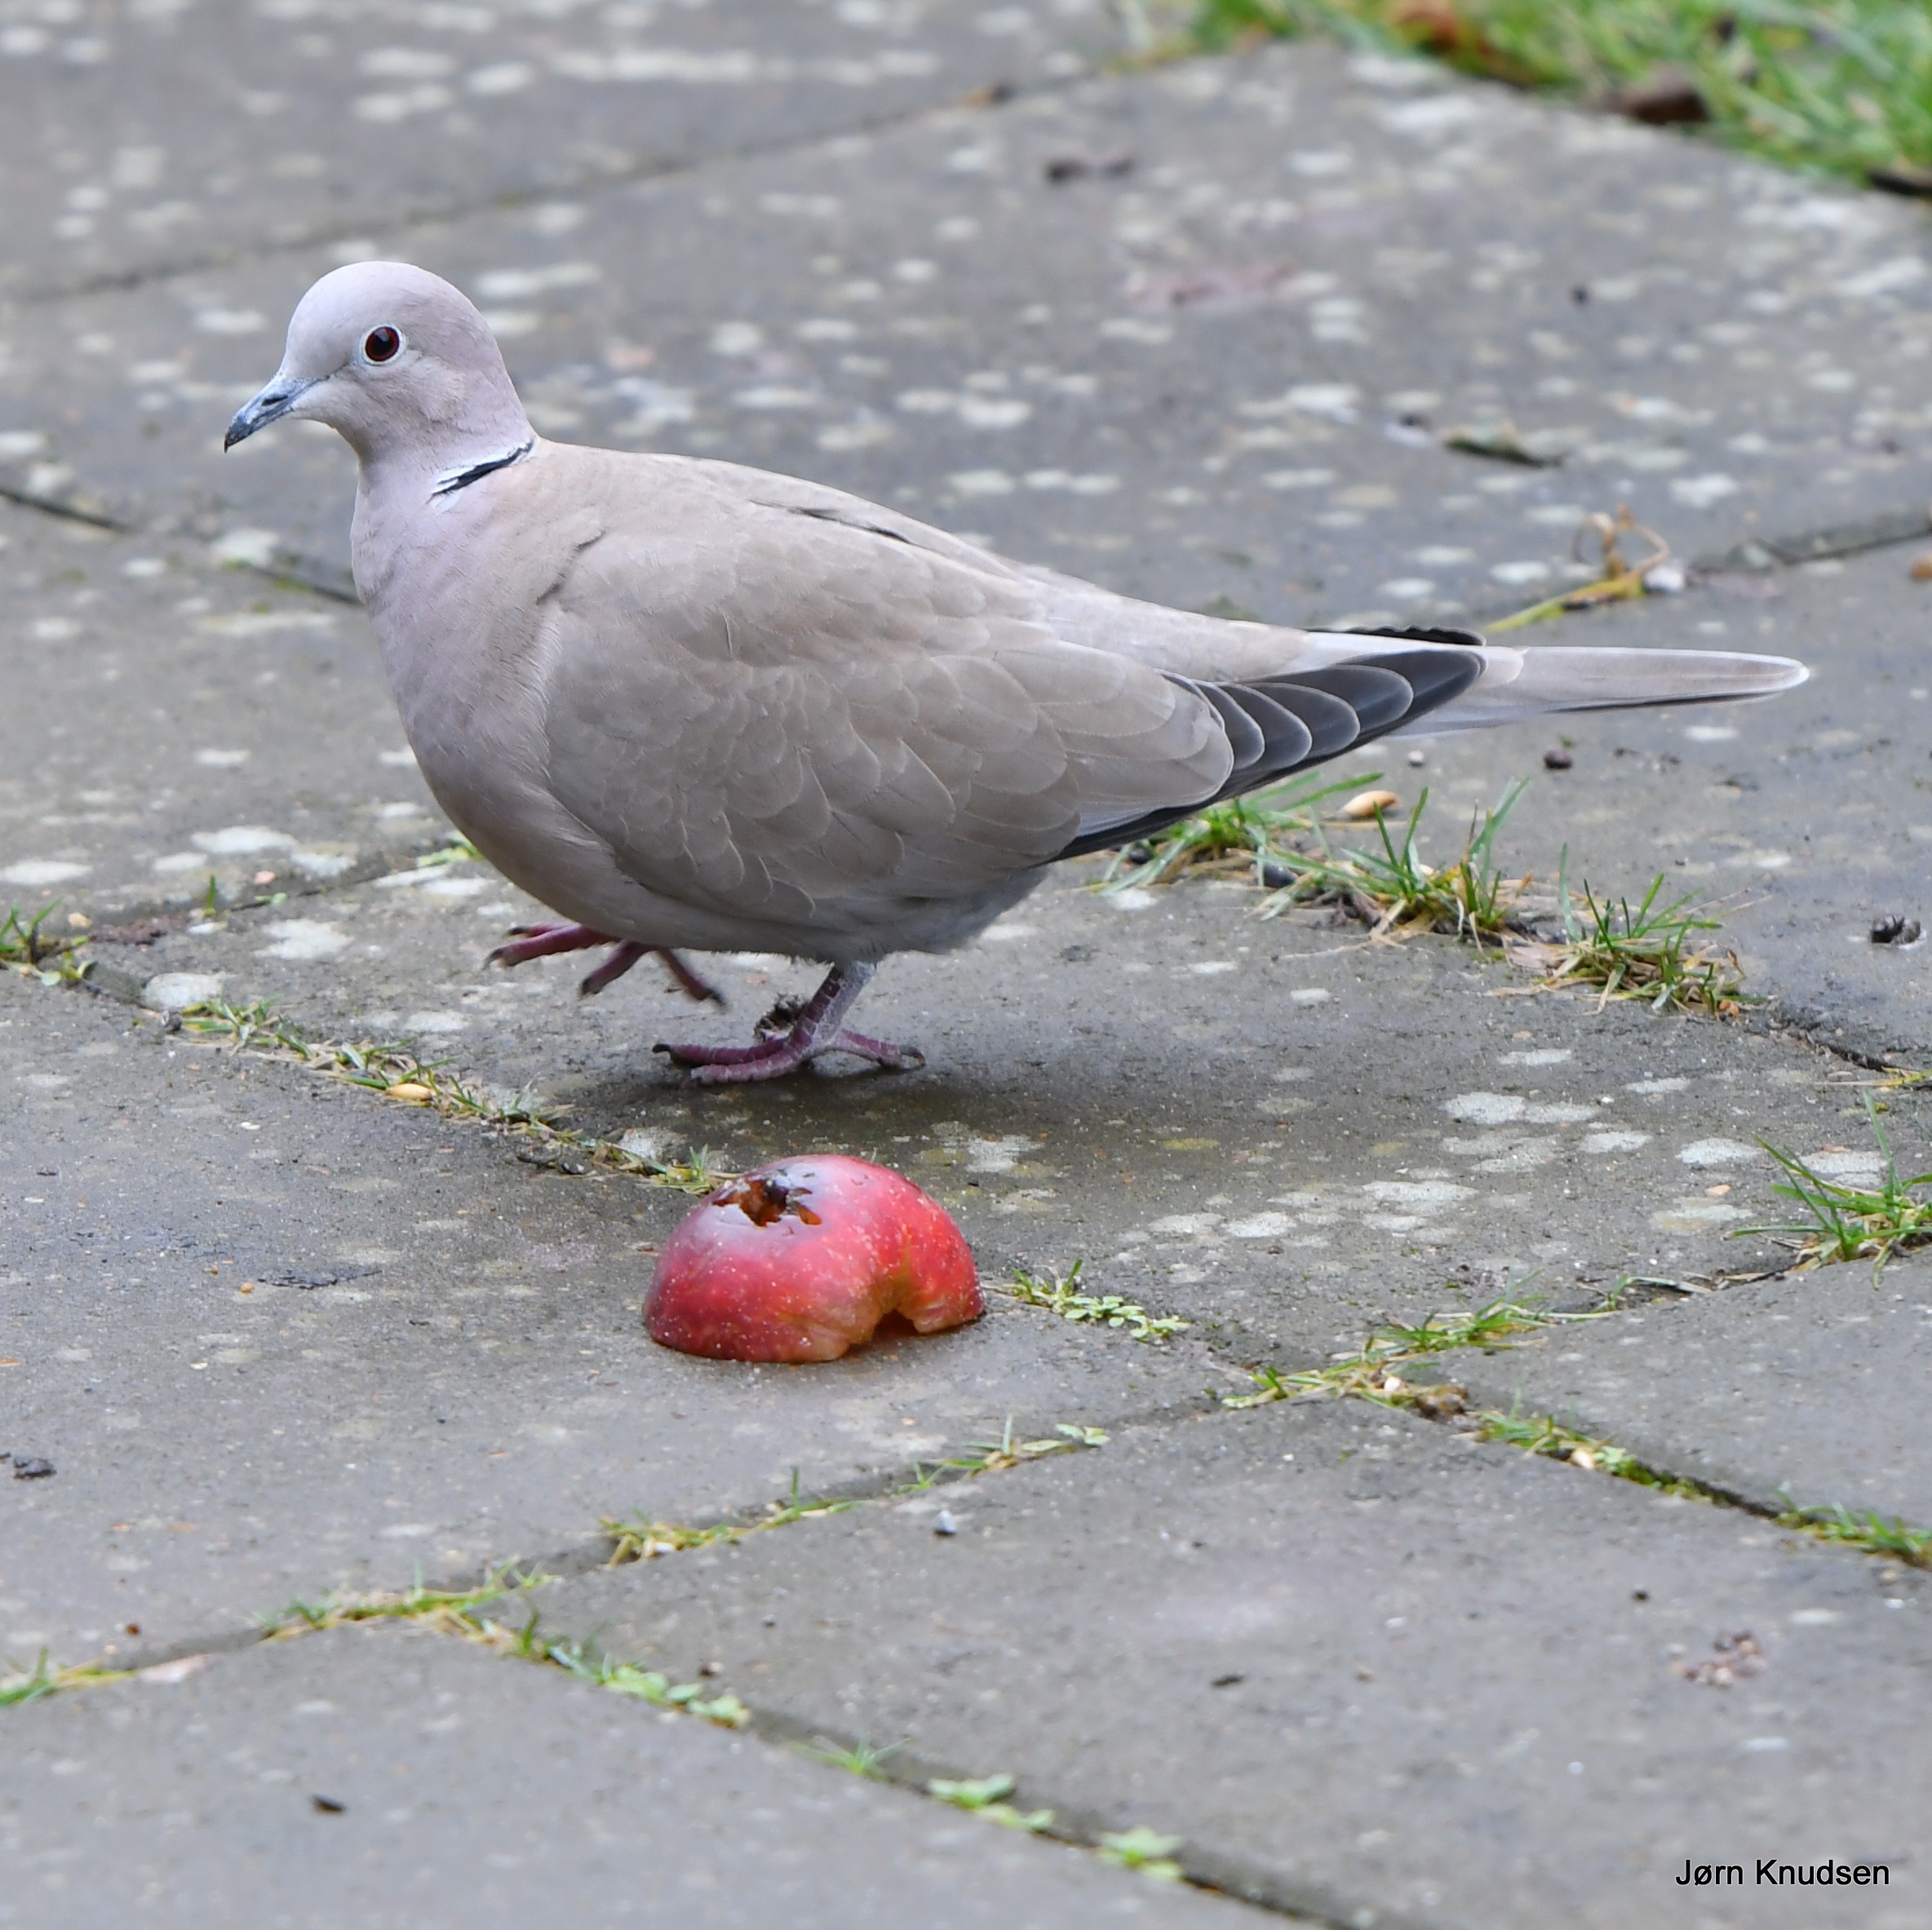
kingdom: Animalia
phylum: Chordata
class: Aves
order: Columbiformes
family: Columbidae
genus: Streptopelia
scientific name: Streptopelia decaocto
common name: Tyrkerdue
